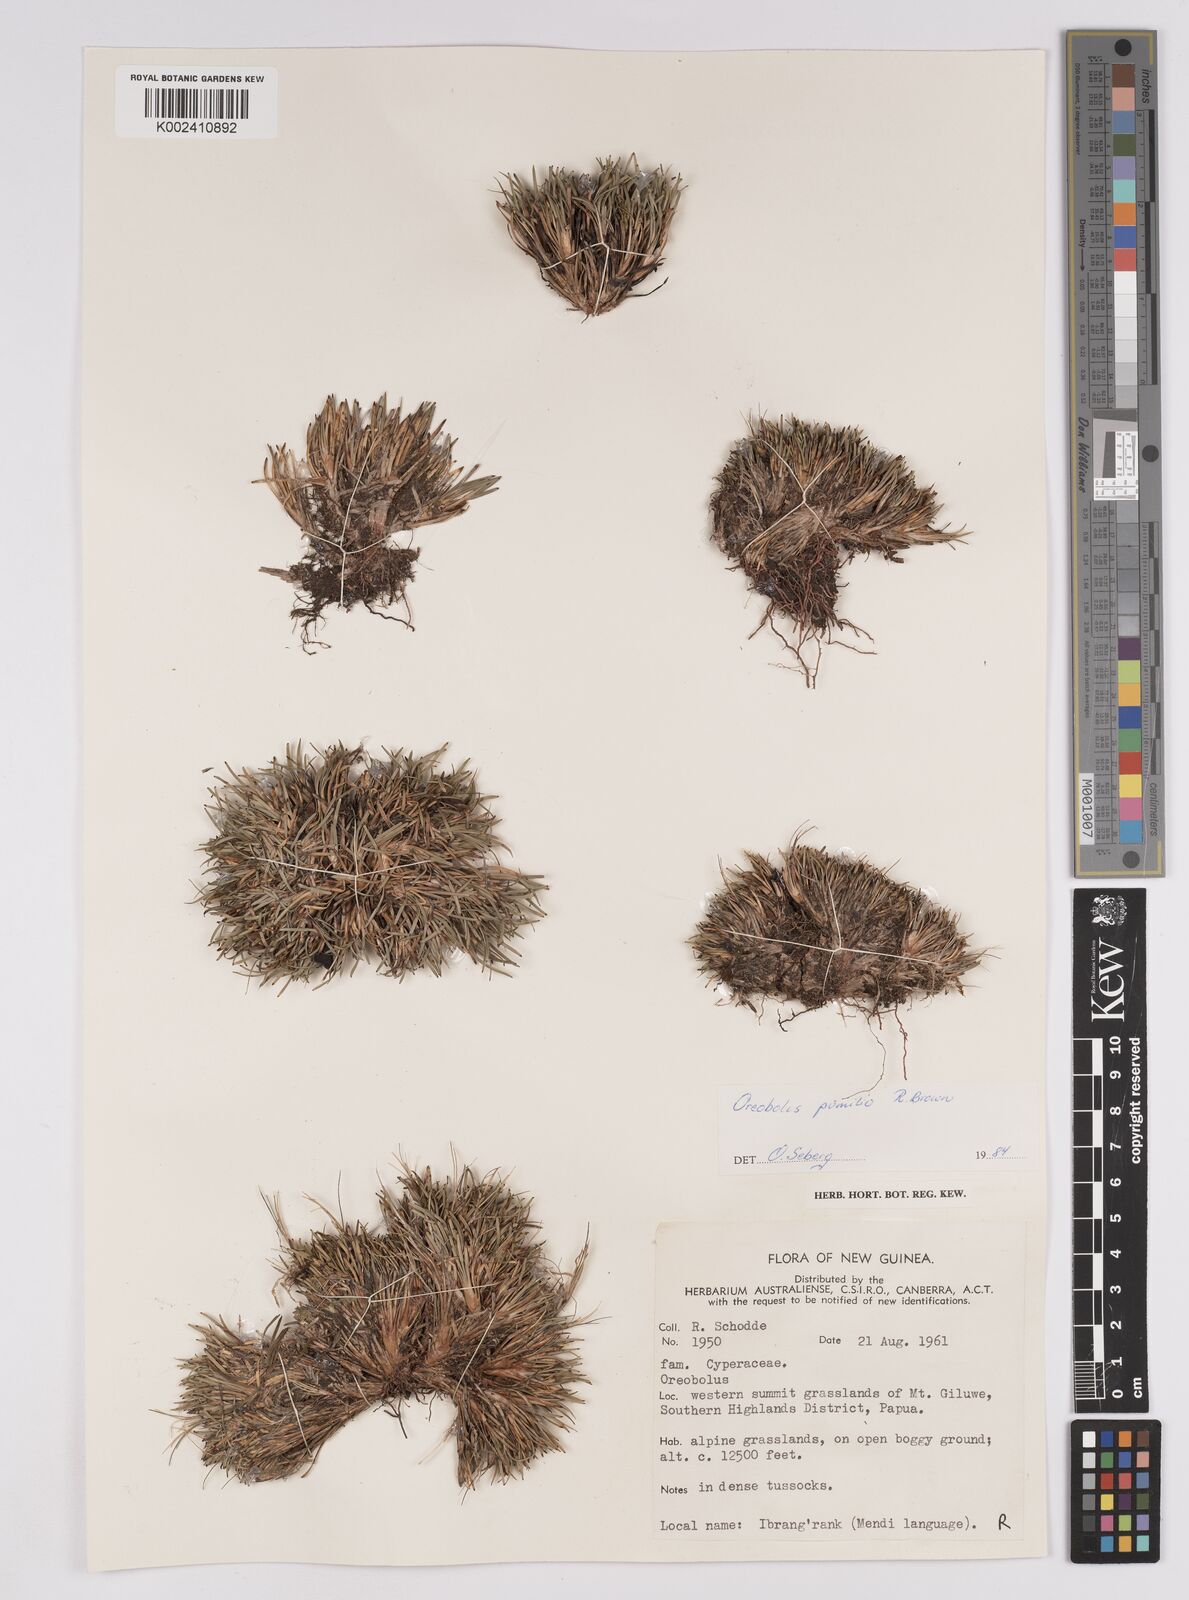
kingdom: Plantae
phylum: Tracheophyta
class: Liliopsida
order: Poales
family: Cyperaceae
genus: Oreobolus
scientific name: Oreobolus pumilio
